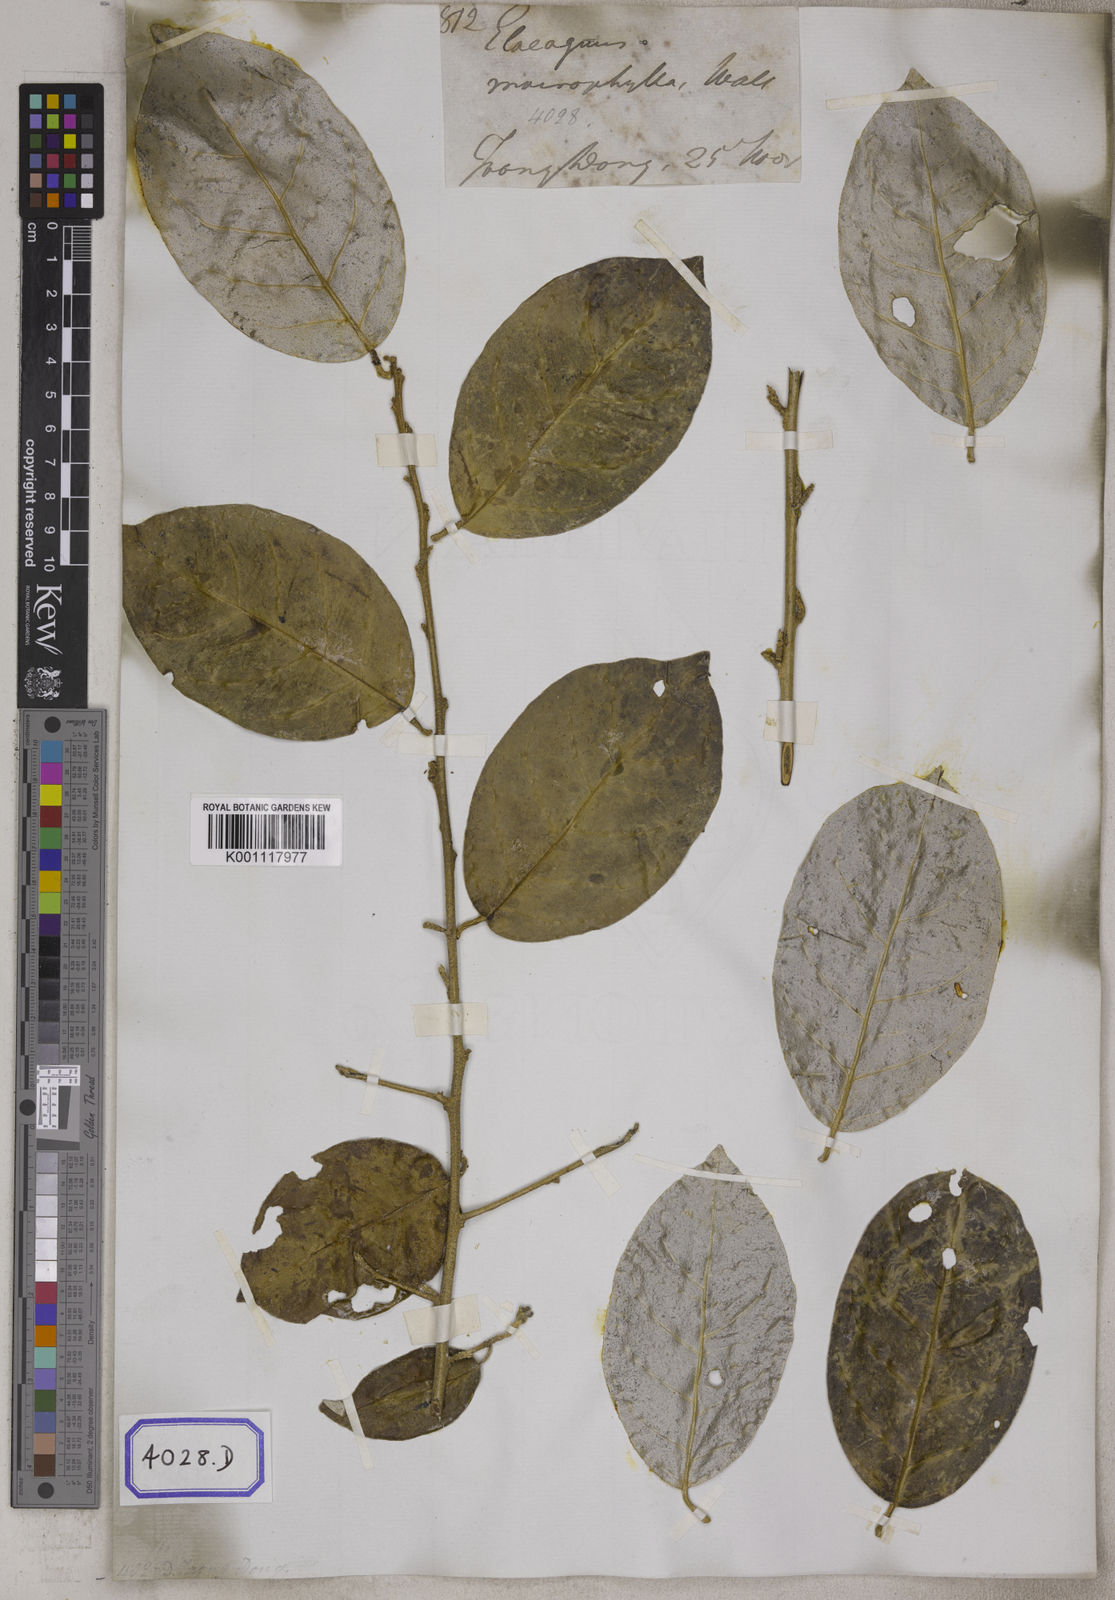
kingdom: Plantae
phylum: Tracheophyta
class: Magnoliopsida
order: Rosales
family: Elaeagnaceae
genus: Elaeagnus
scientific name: Elaeagnus latifolia
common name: Oleaster
